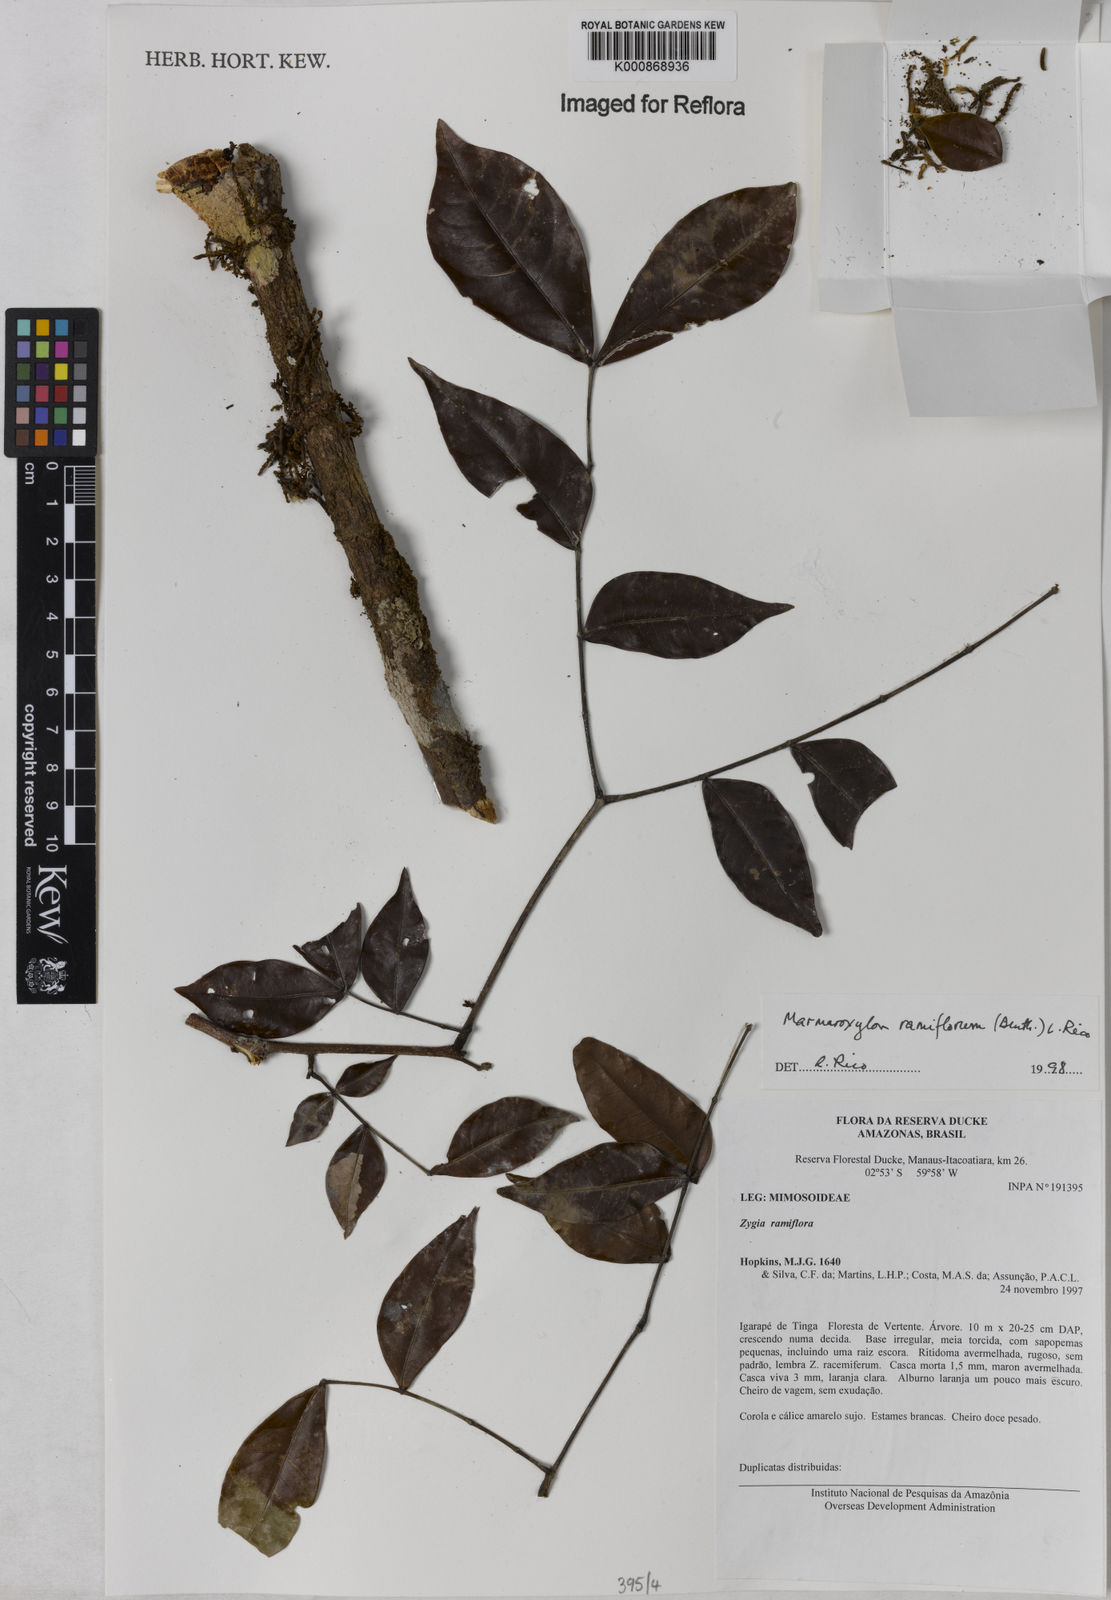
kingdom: Plantae
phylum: Tracheophyta
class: Magnoliopsida
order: Fabales
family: Fabaceae
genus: Zygia
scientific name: Zygia dinizii
